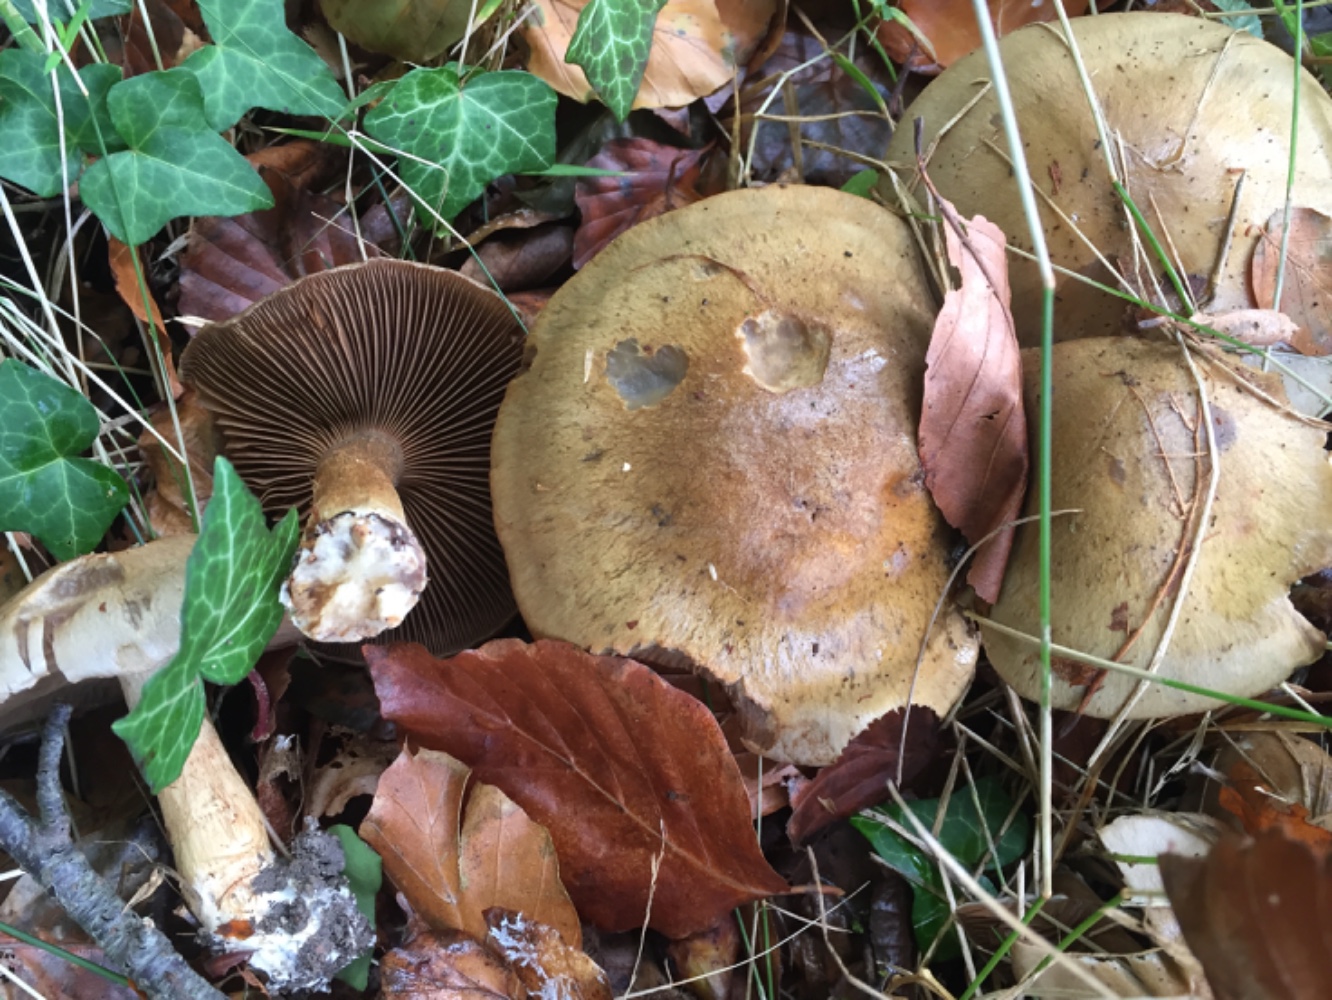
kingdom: Fungi
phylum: Basidiomycota
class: Agaricomycetes
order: Agaricales
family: Cortinariaceae
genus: Cortinarius
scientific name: Cortinarius
